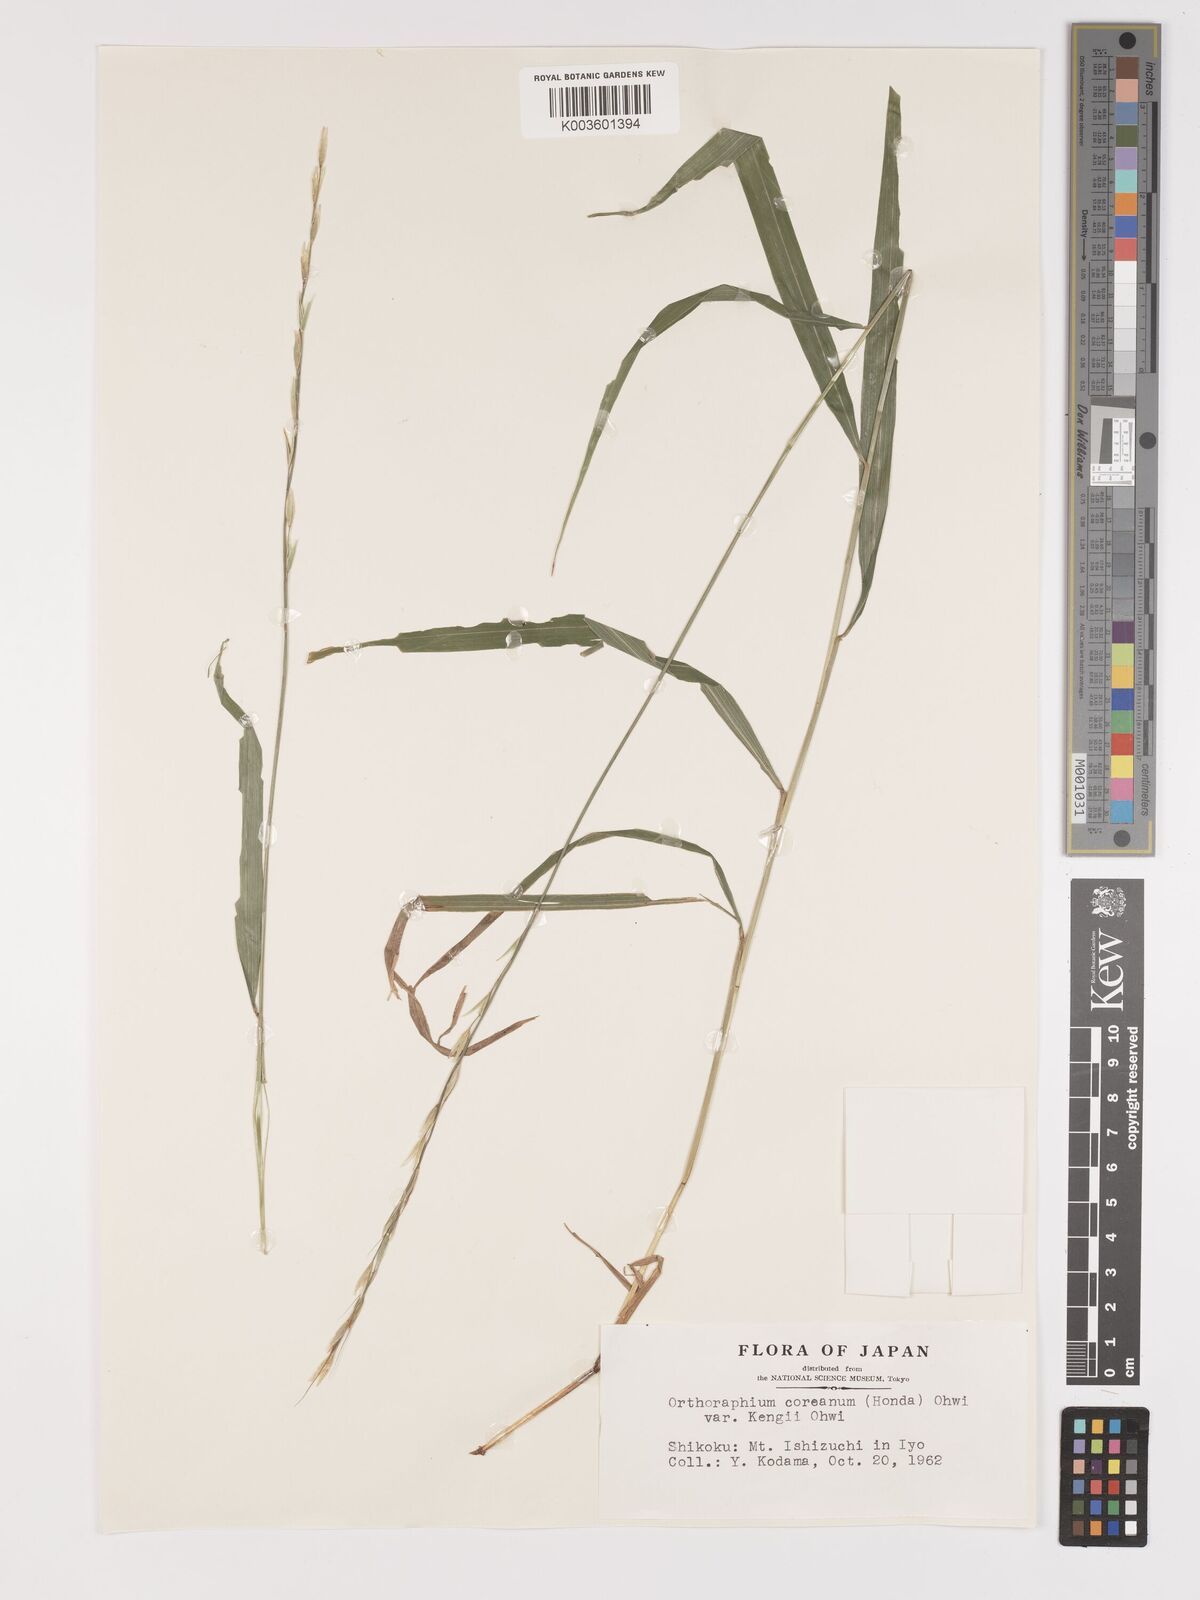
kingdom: Plantae
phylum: Tracheophyta
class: Liliopsida
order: Poales
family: Poaceae
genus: Patis
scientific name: Patis coreana
